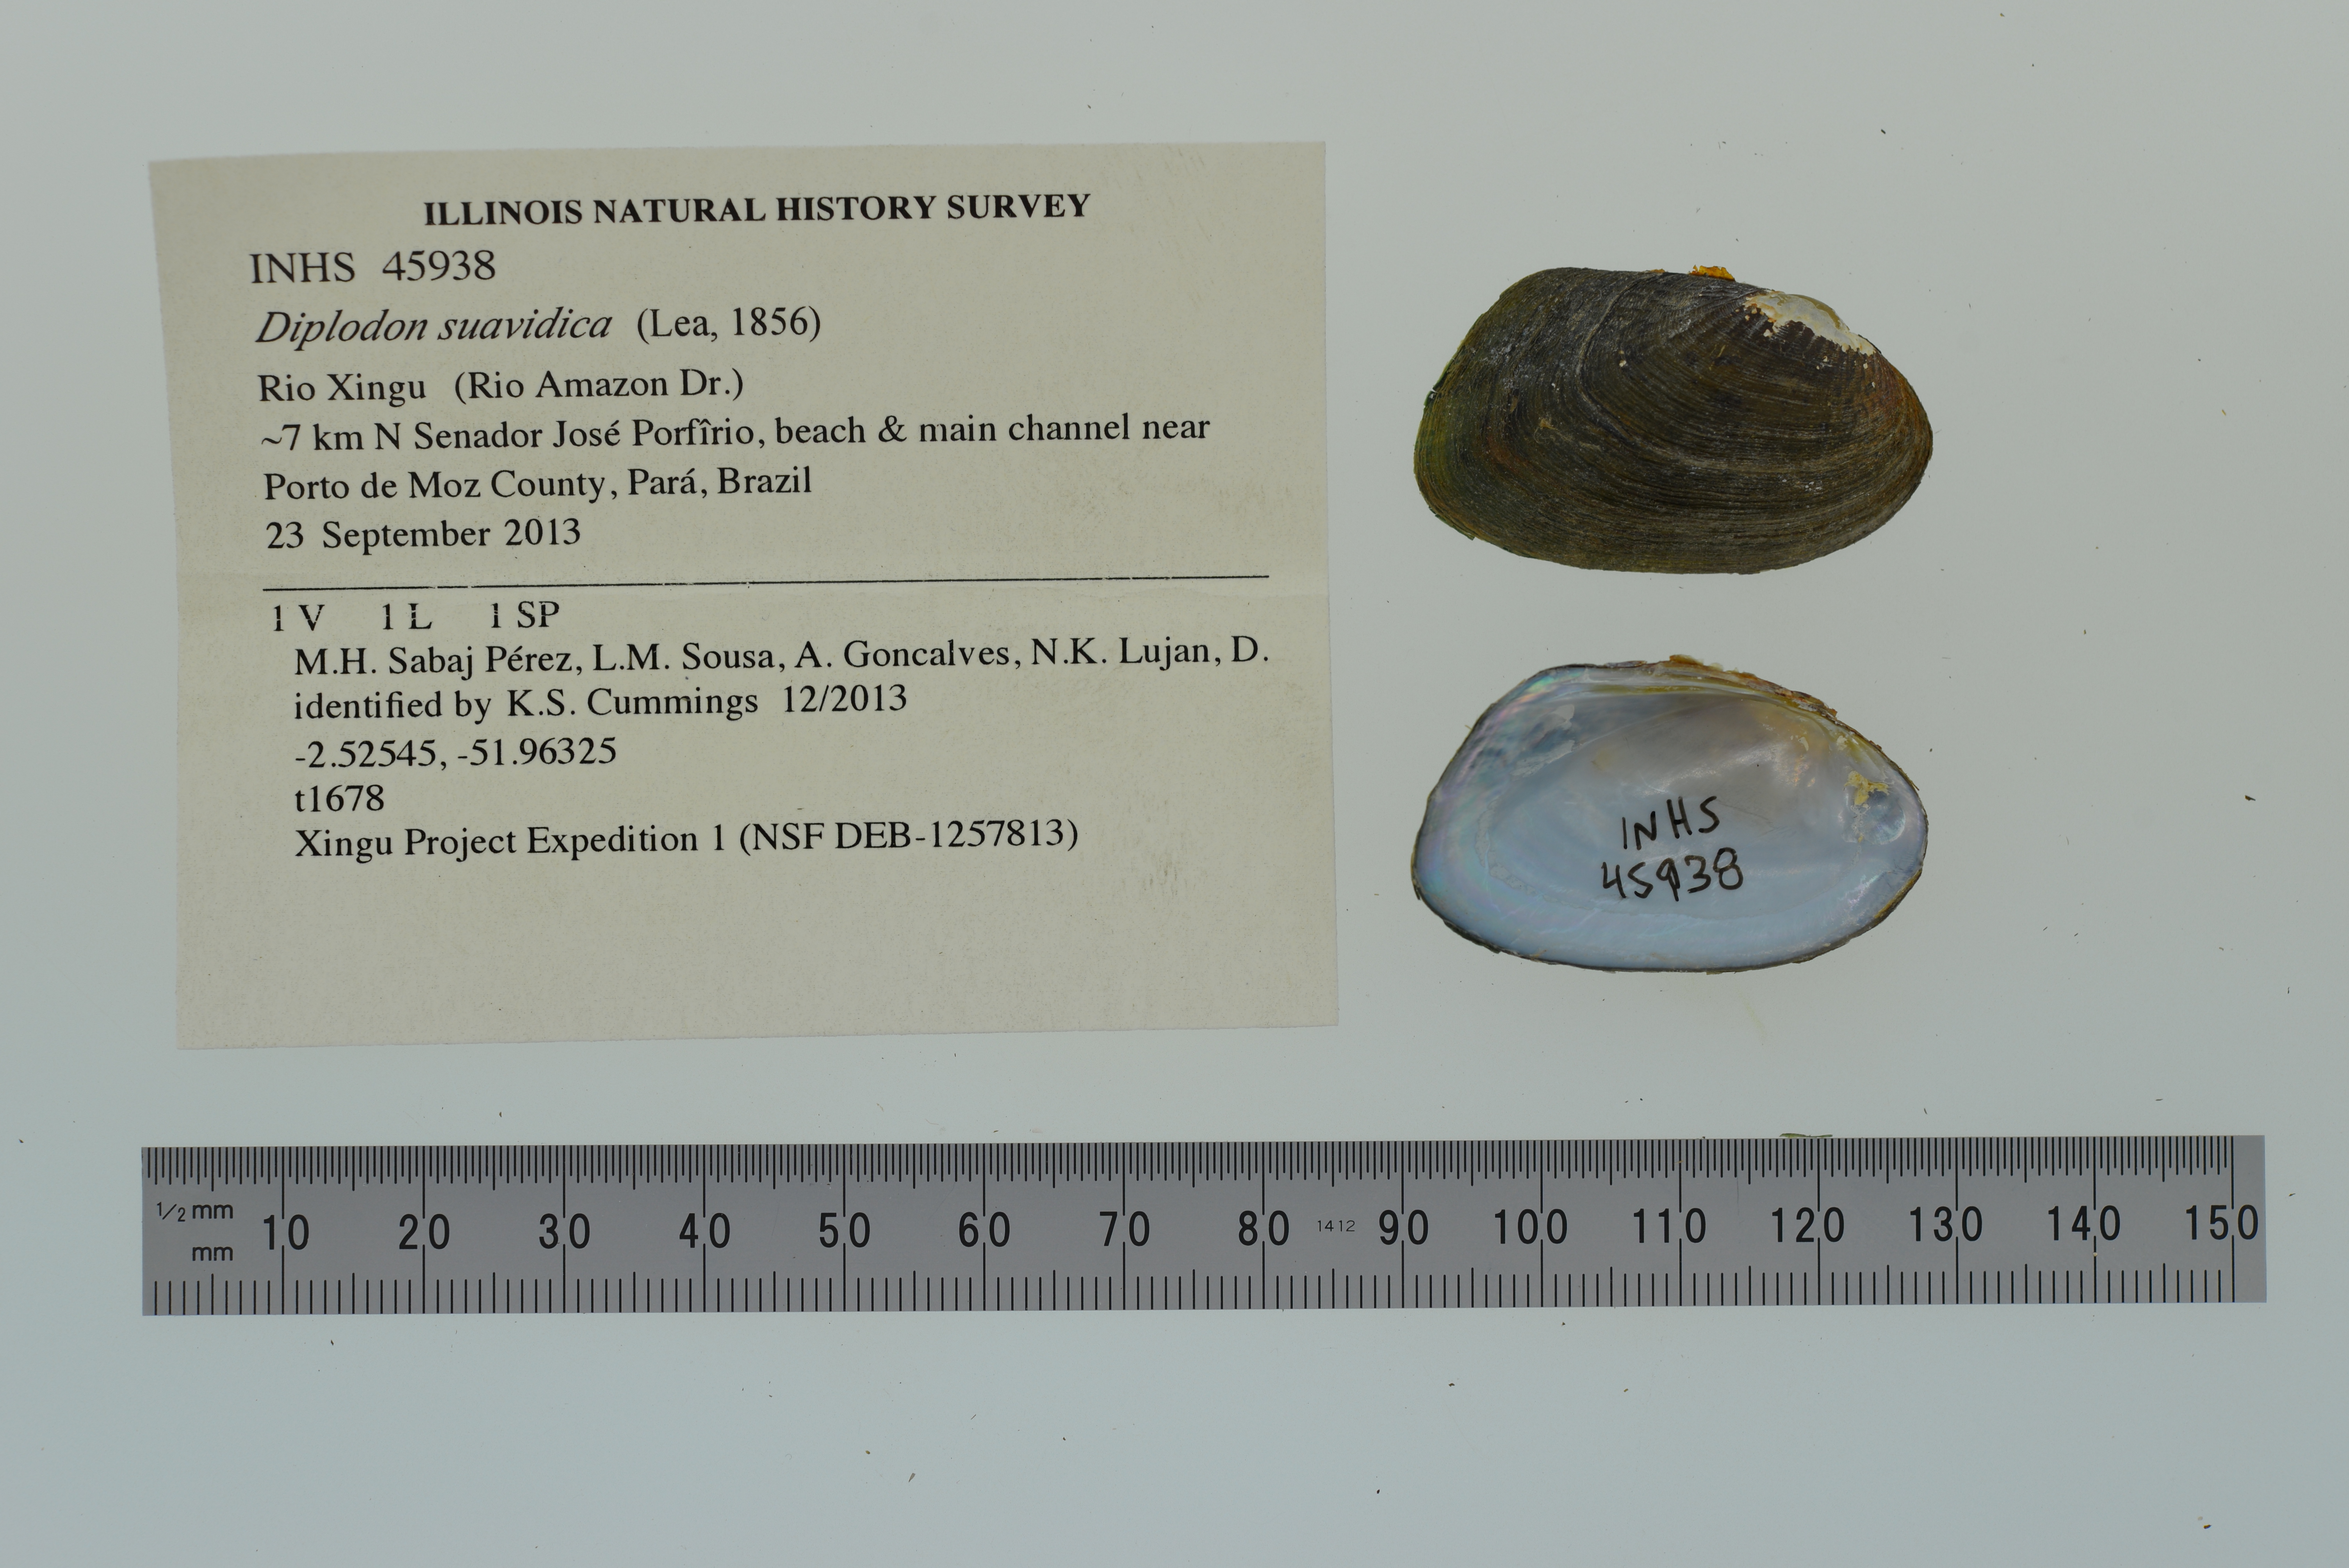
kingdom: Animalia
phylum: Mollusca
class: Bivalvia
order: Unionida
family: Hyriidae
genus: Diplodon
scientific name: Diplodon suavidicus
